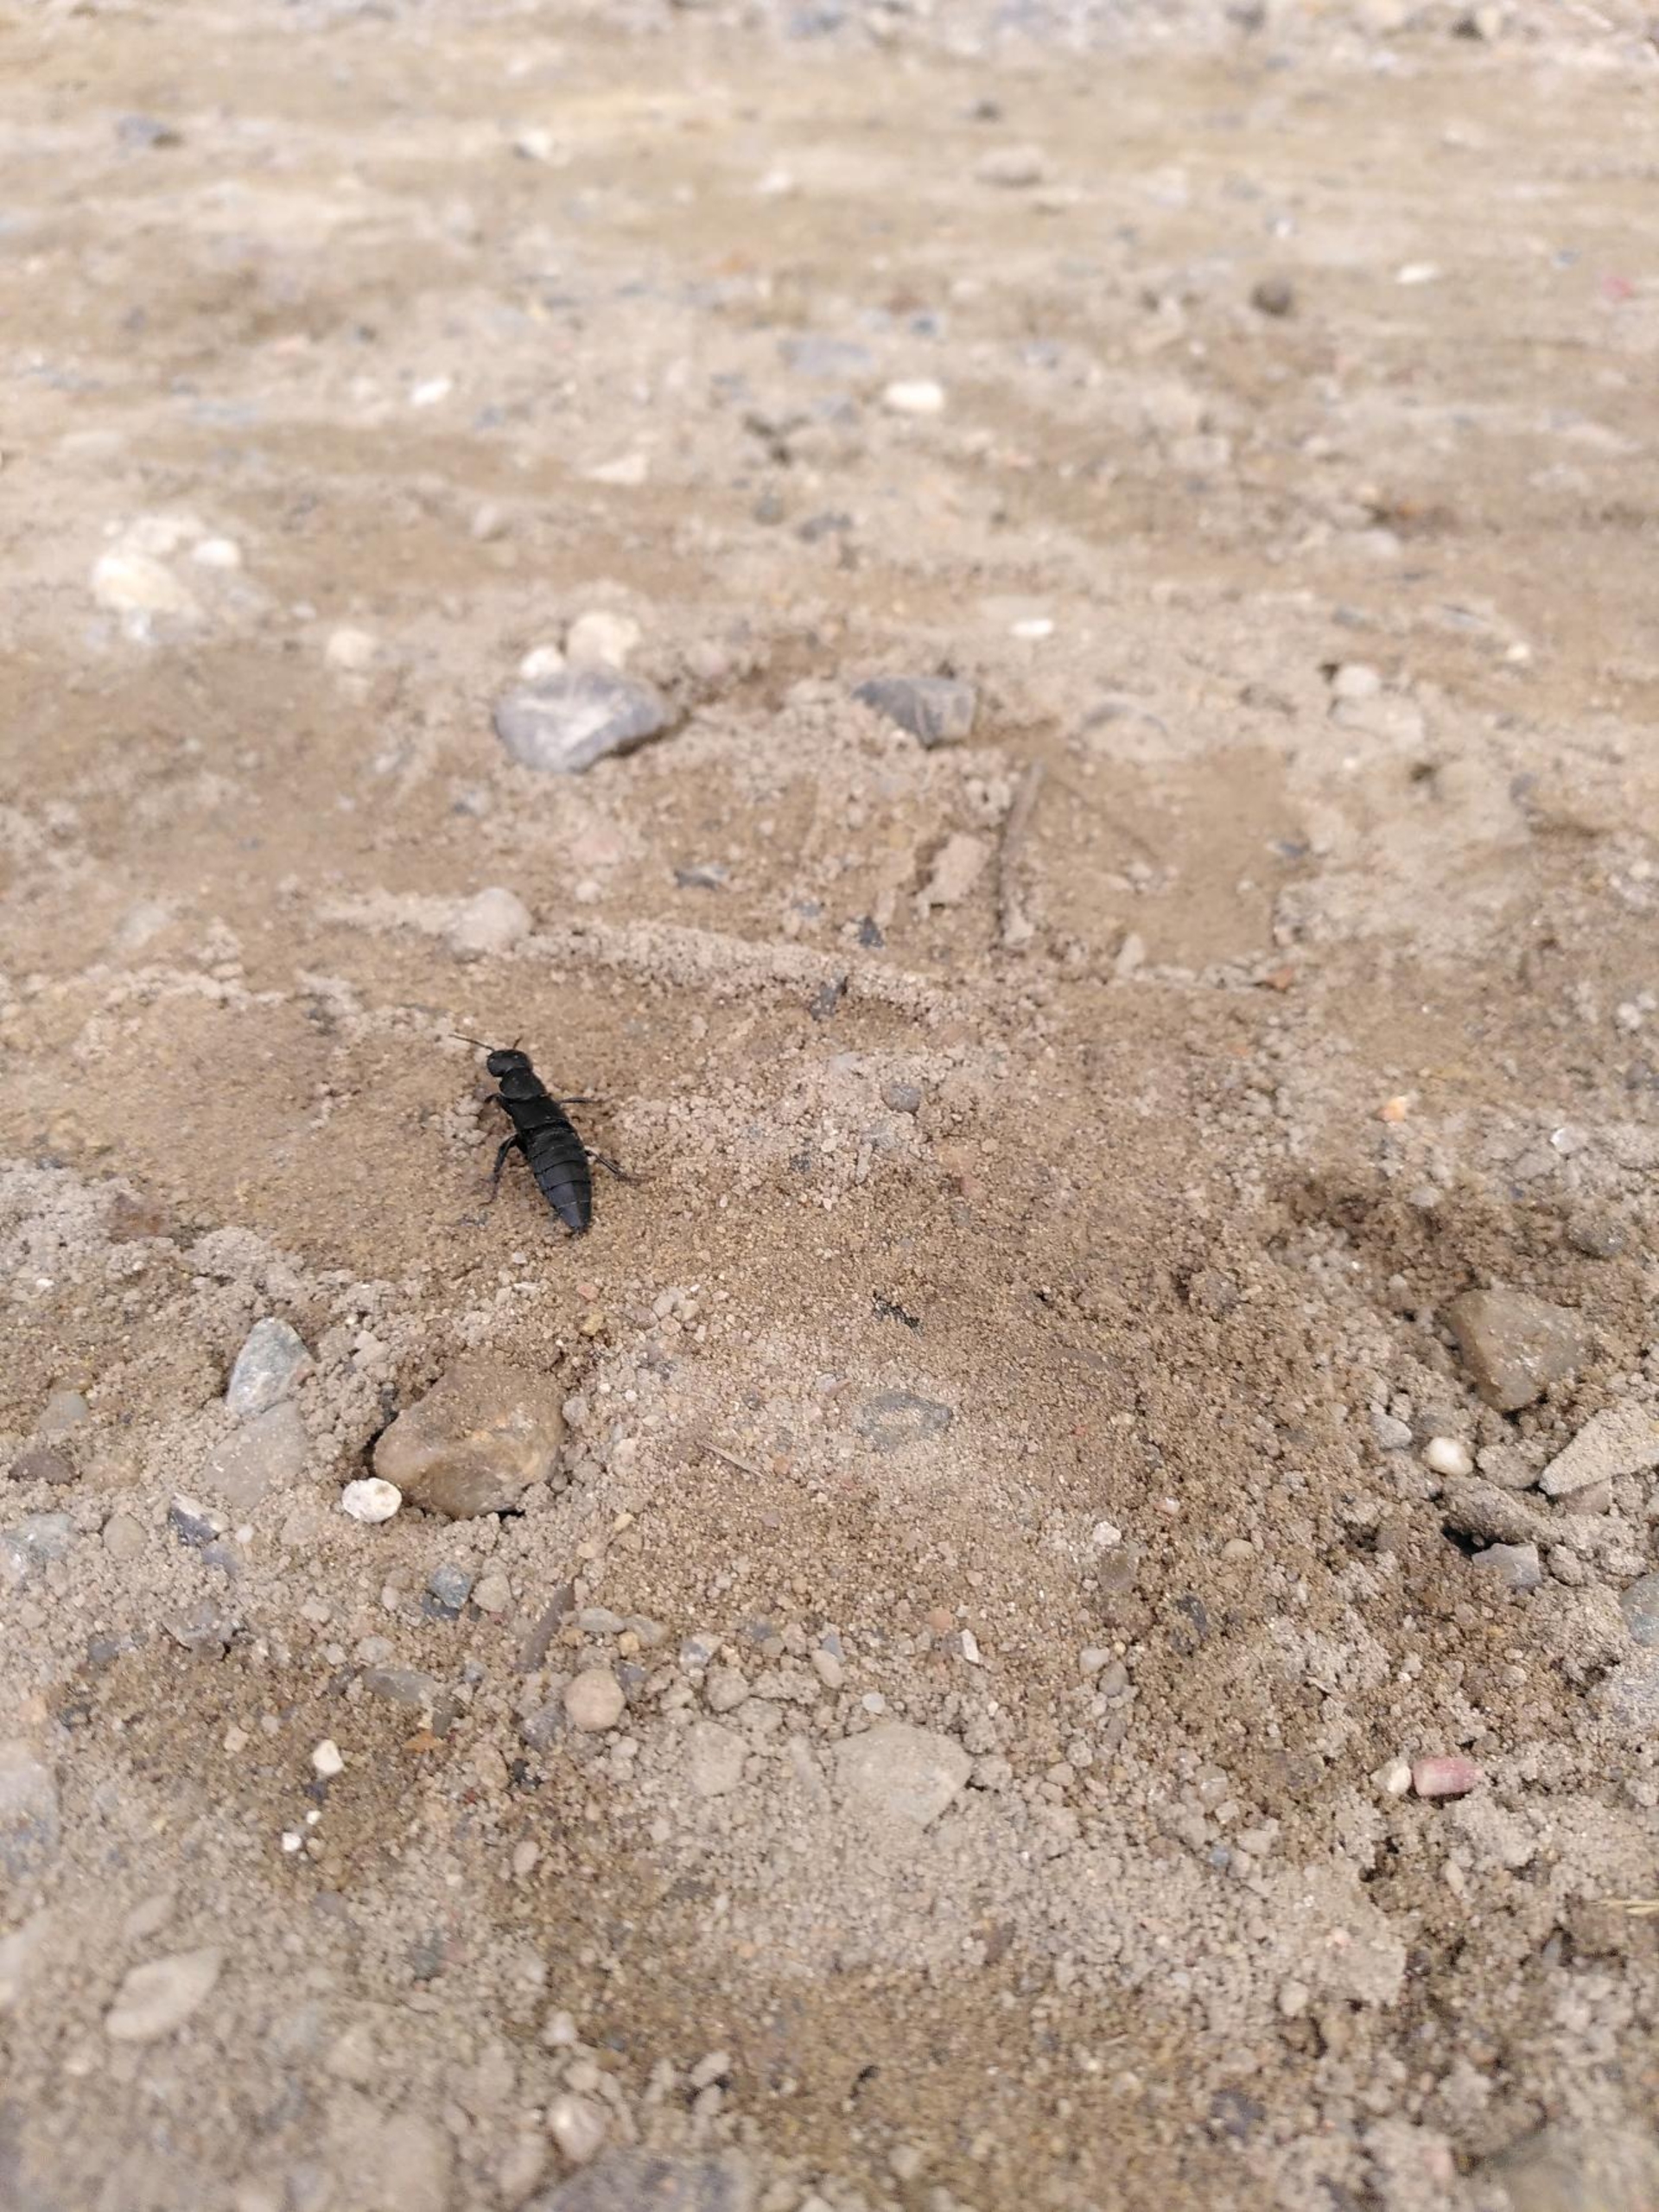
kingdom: Animalia
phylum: Arthropoda
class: Insecta
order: Coleoptera
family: Staphylinidae
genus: Ocypus
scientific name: Ocypus olens
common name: Stor rovbille
